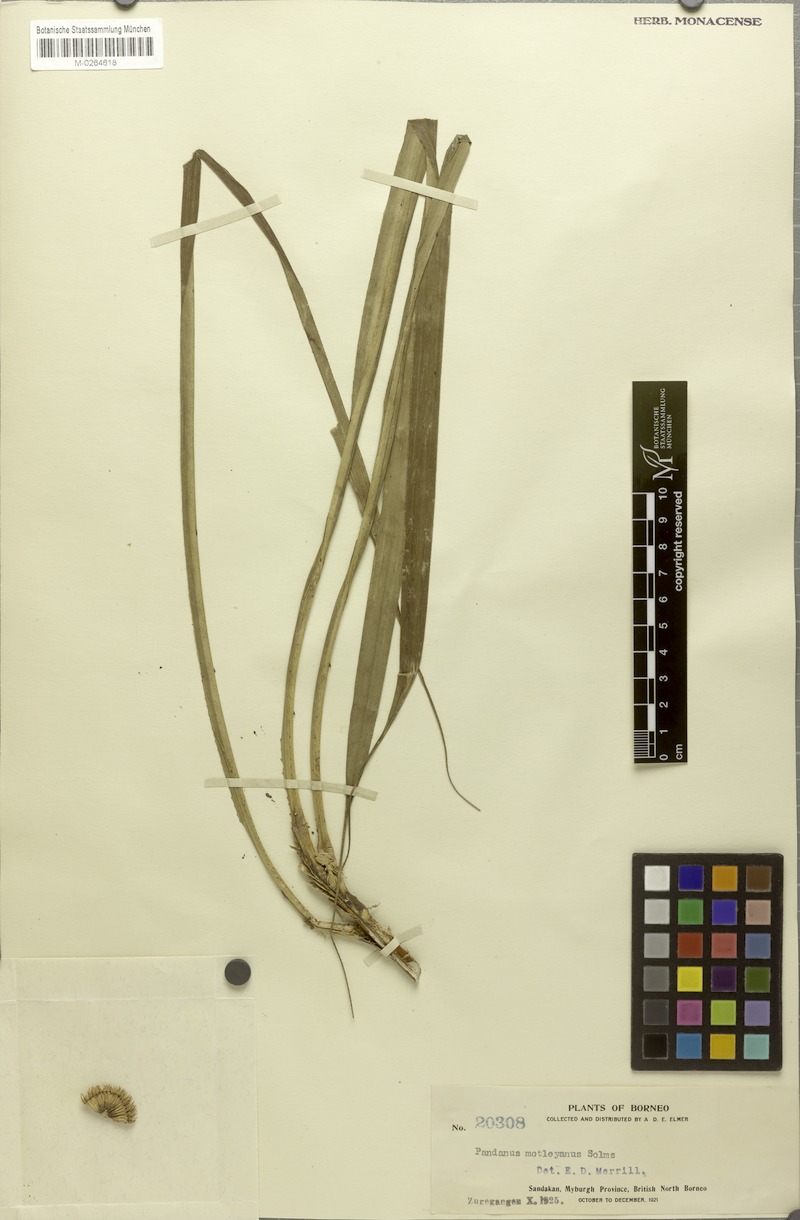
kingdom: Plantae
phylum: Tracheophyta
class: Liliopsida
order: Pandanales
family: Pandanaceae
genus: Pandanus
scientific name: Pandanus yvanii
